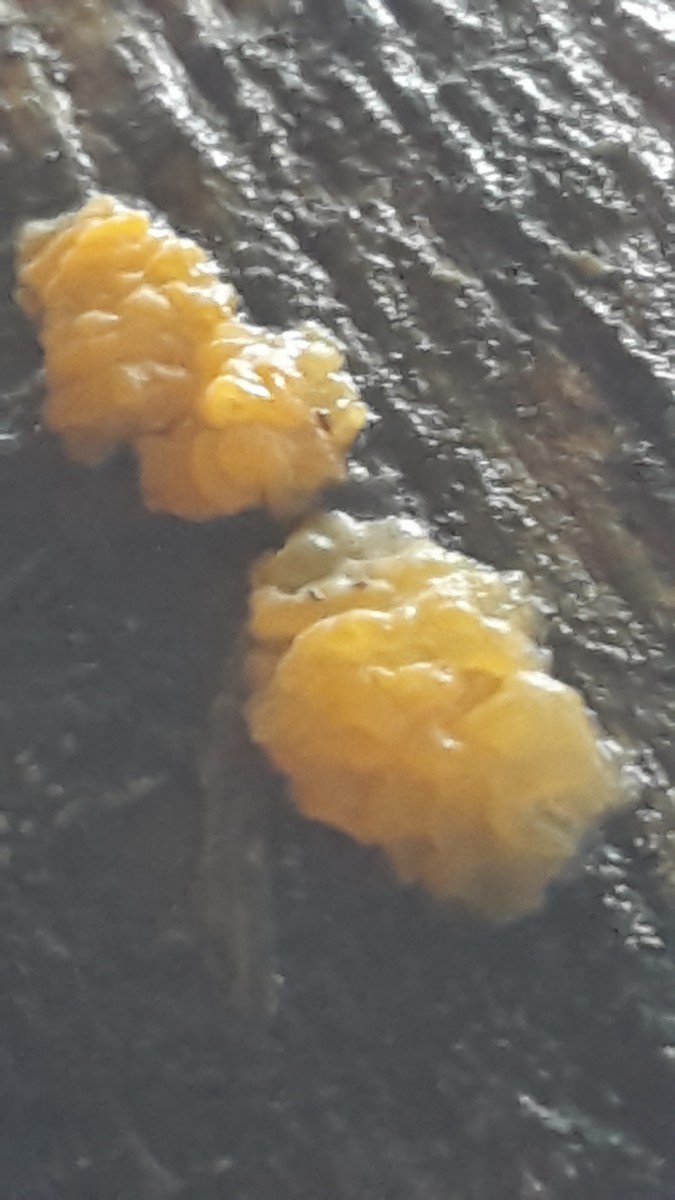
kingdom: Fungi
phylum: Basidiomycota
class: Dacrymycetes
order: Dacrymycetales
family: Dacrymycetaceae
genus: Dacrymyces
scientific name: Dacrymyces
